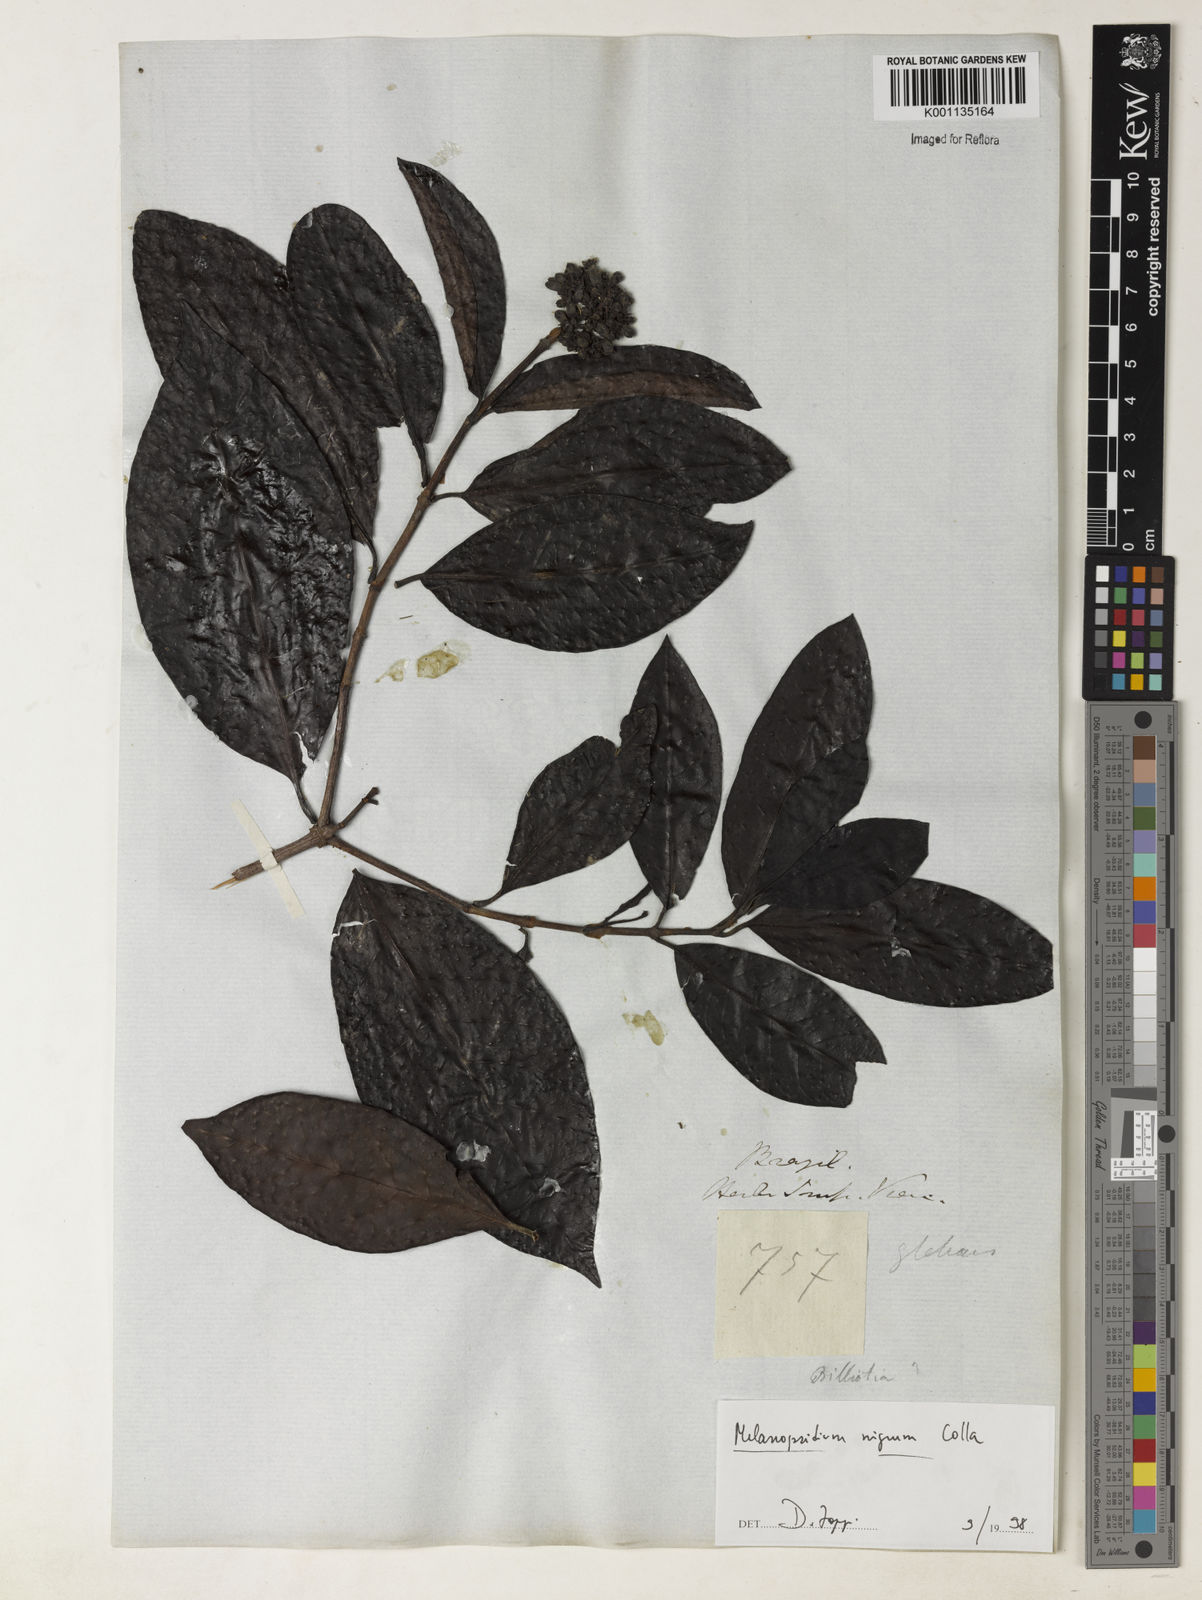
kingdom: Plantae
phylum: Tracheophyta
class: Magnoliopsida
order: Gentianales
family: Rubiaceae
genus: Melanopsidium
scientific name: Melanopsidium nigrum
